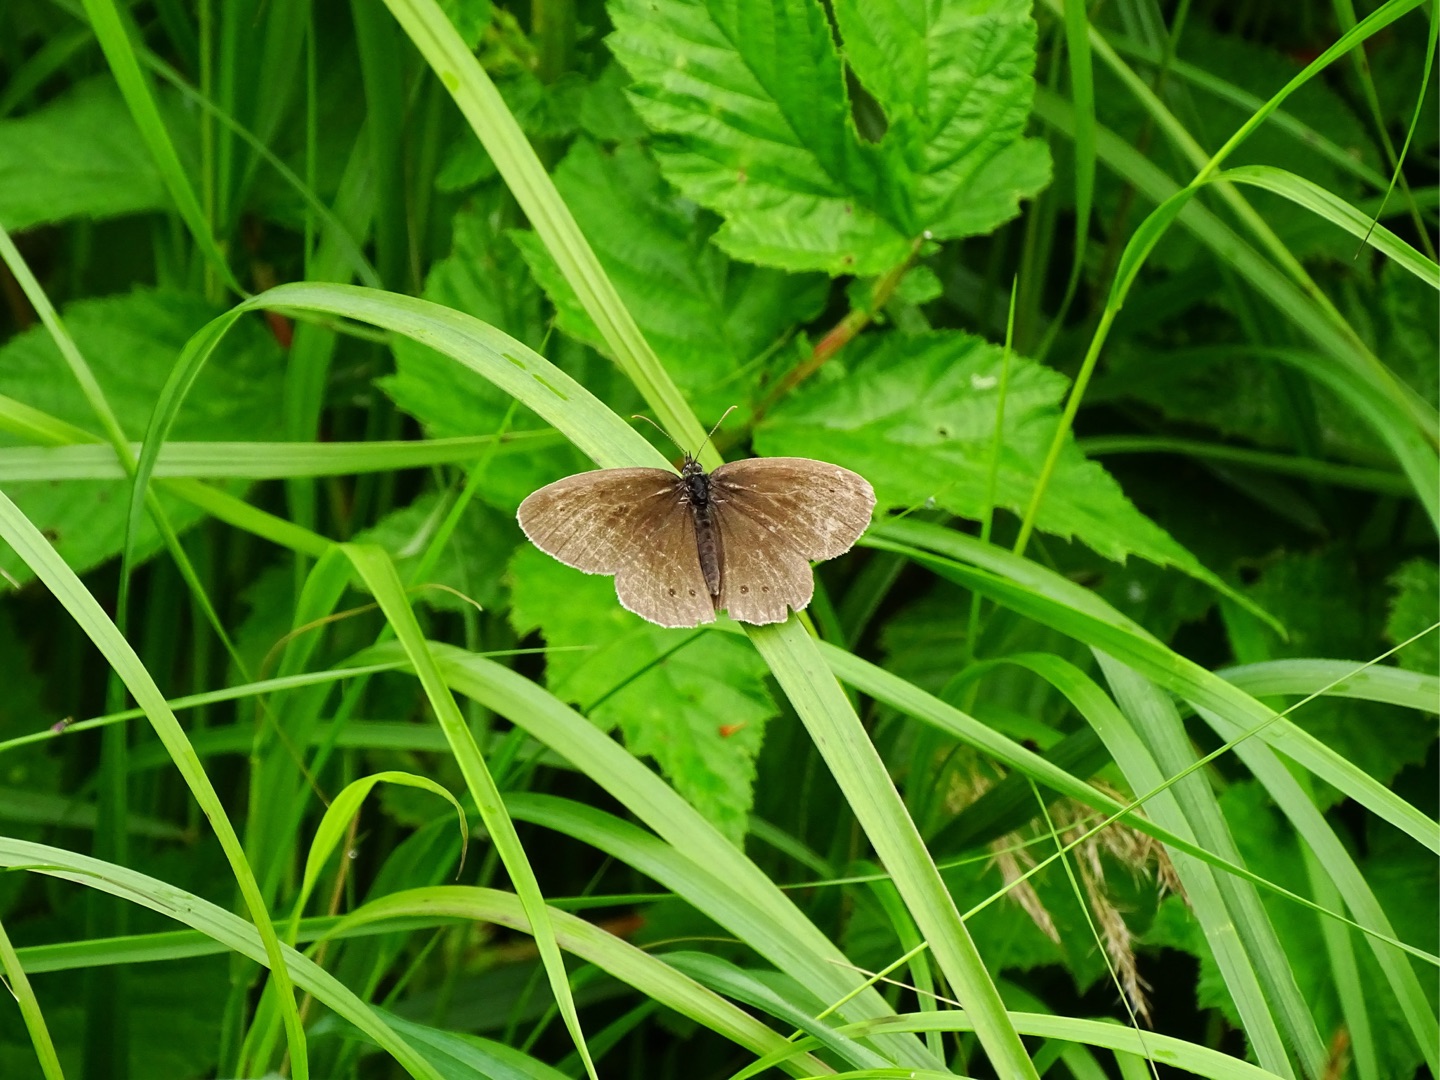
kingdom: Animalia
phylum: Arthropoda
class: Insecta
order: Lepidoptera
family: Nymphalidae
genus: Aphantopus
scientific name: Aphantopus hyperantus
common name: Engrandøje
